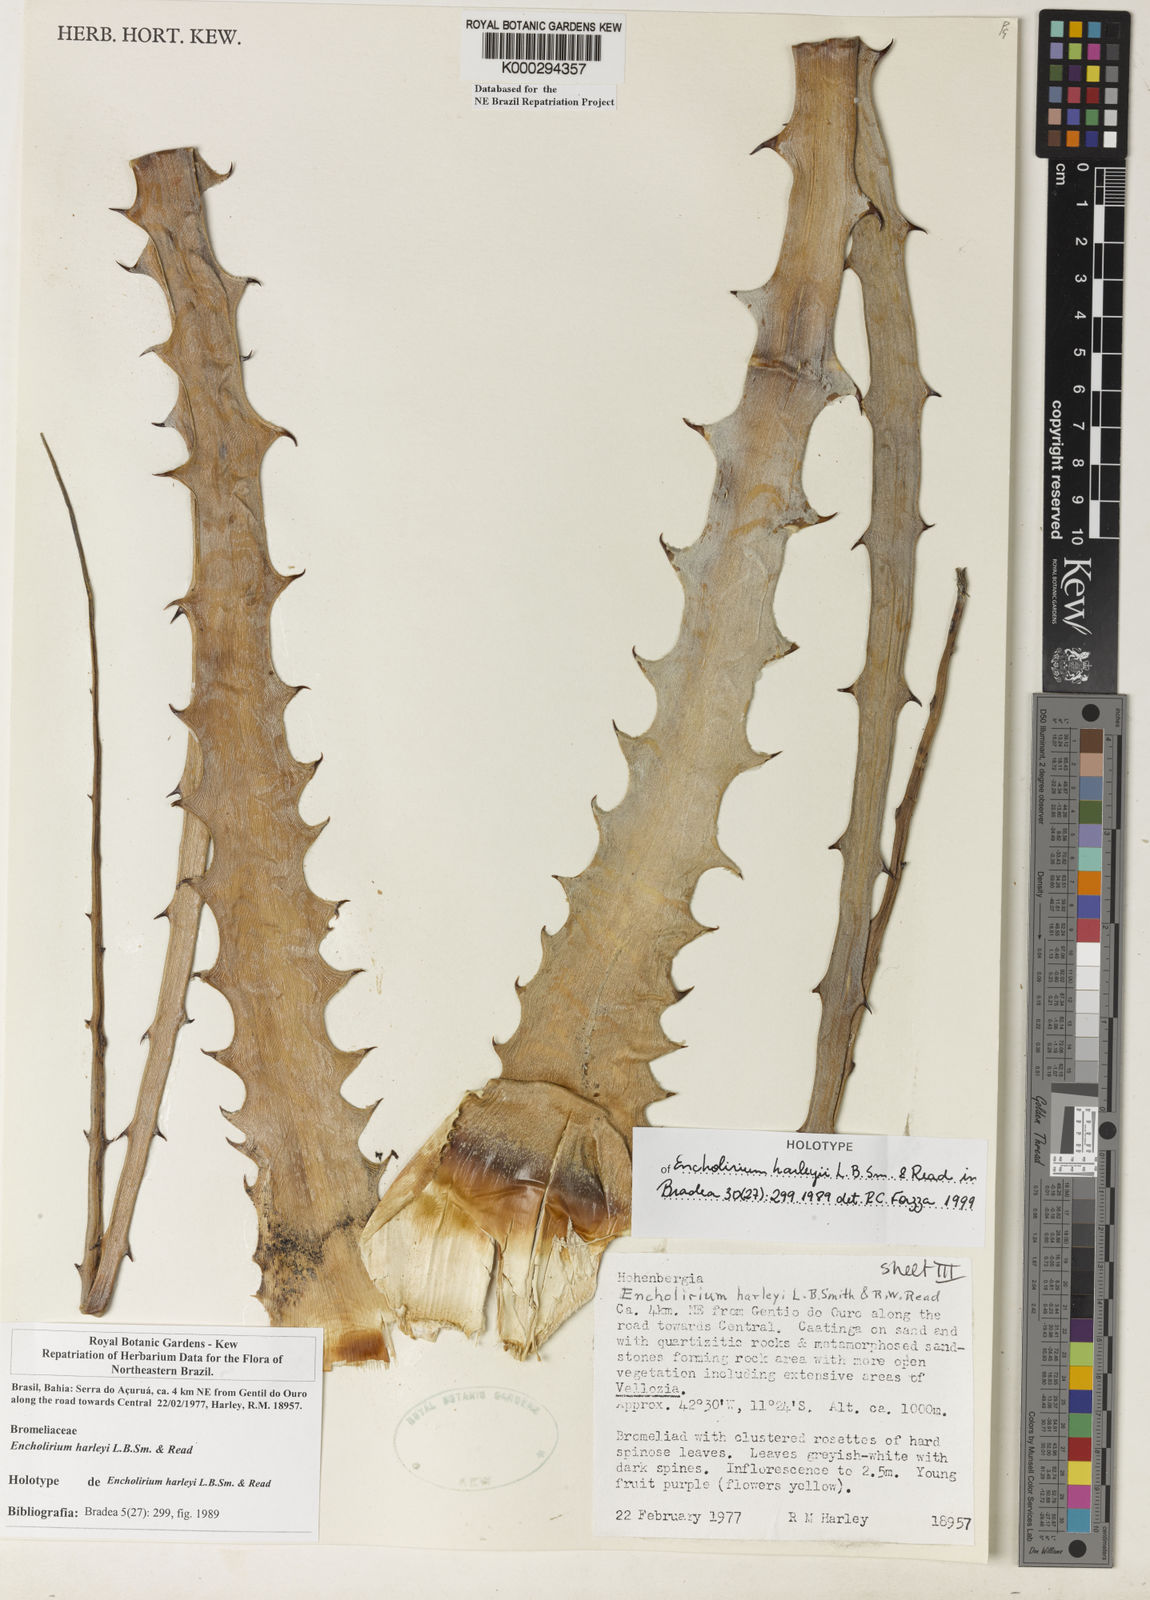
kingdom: Plantae
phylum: Tracheophyta
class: Liliopsida
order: Poales
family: Bromeliaceae
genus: Encholirium
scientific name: Encholirium spectabile
